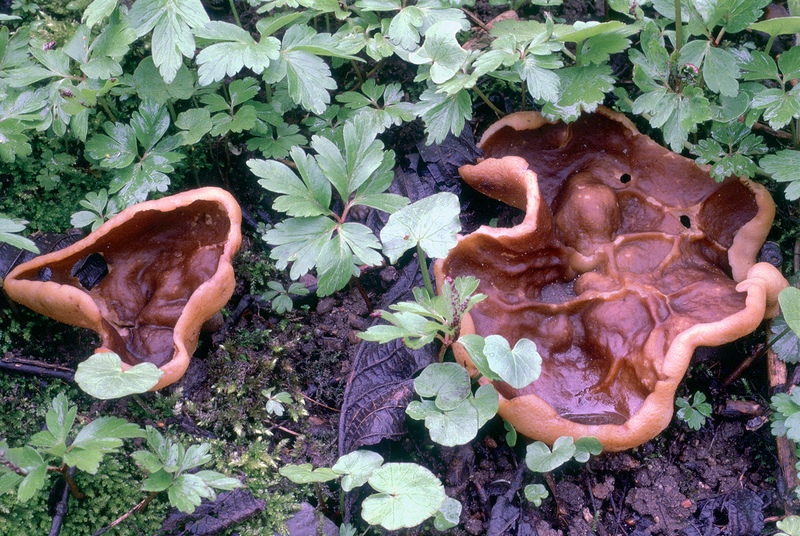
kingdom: Fungi
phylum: Ascomycota
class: Pezizomycetes
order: Pezizales
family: Morchellaceae
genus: Disciotis
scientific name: Disciotis venosa
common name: klor-bægermorkel
